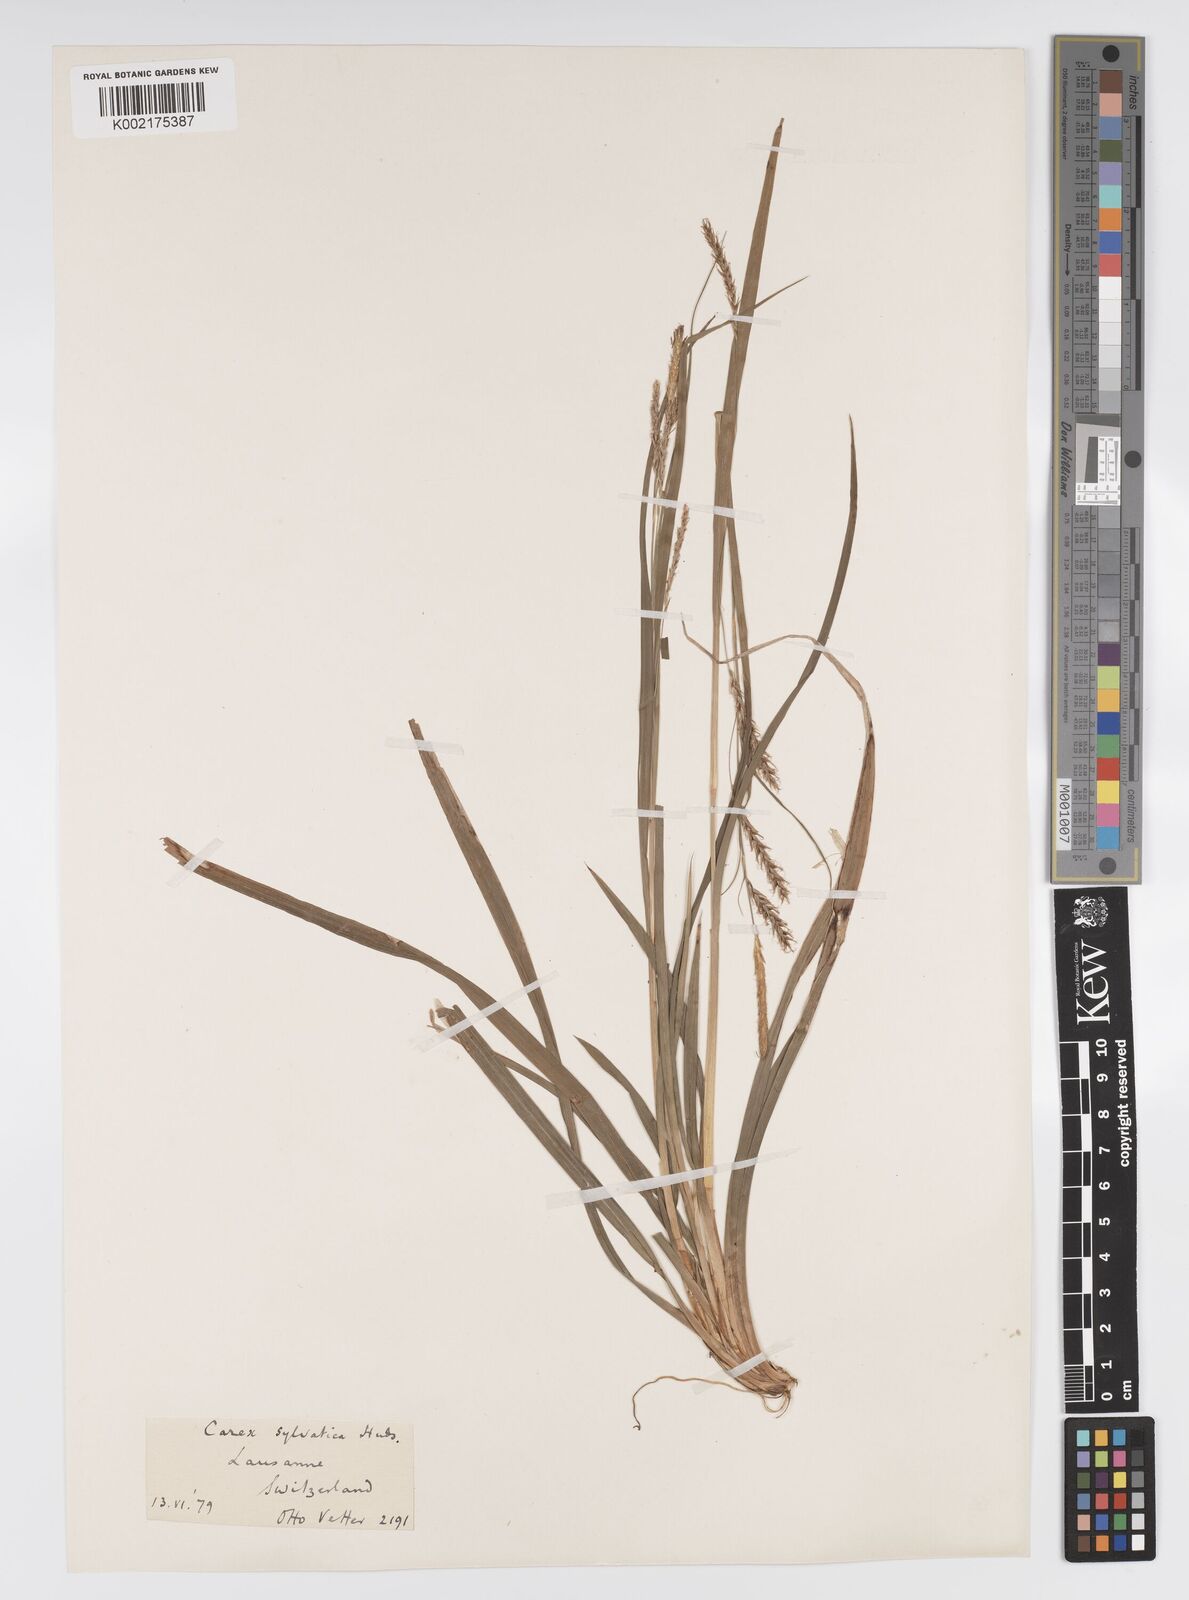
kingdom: Plantae
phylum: Tracheophyta
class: Liliopsida
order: Poales
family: Cyperaceae
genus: Carex
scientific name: Carex sylvatica
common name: Wood-sedge
